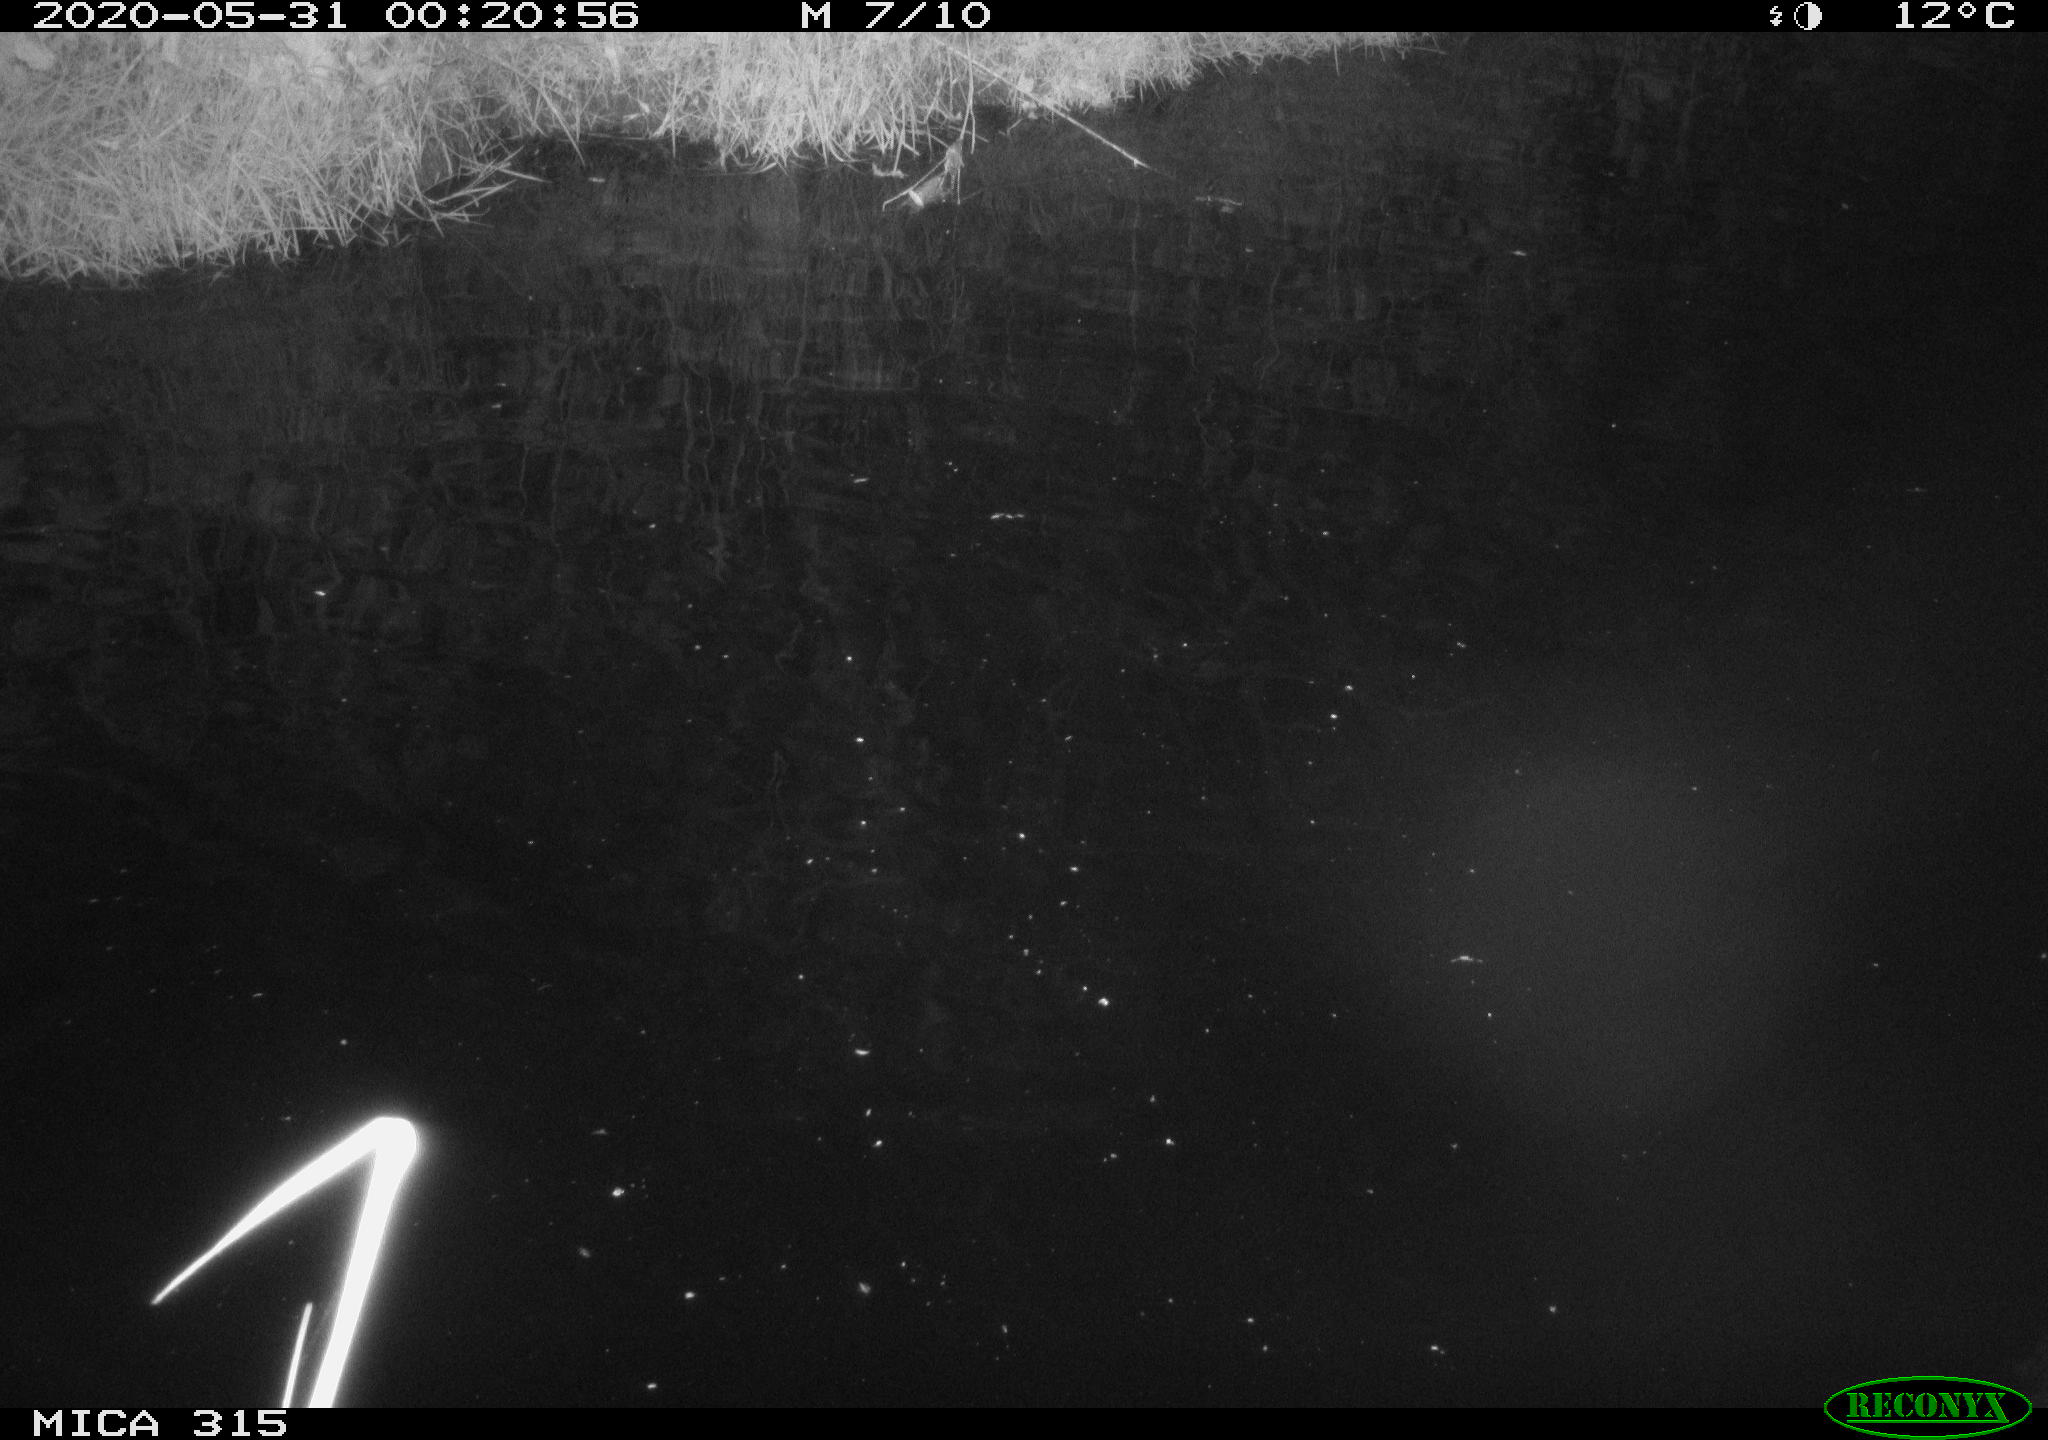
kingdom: Animalia
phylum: Chordata
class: Aves
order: Anseriformes
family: Anatidae
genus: Anas
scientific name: Anas platyrhynchos
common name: Mallard
